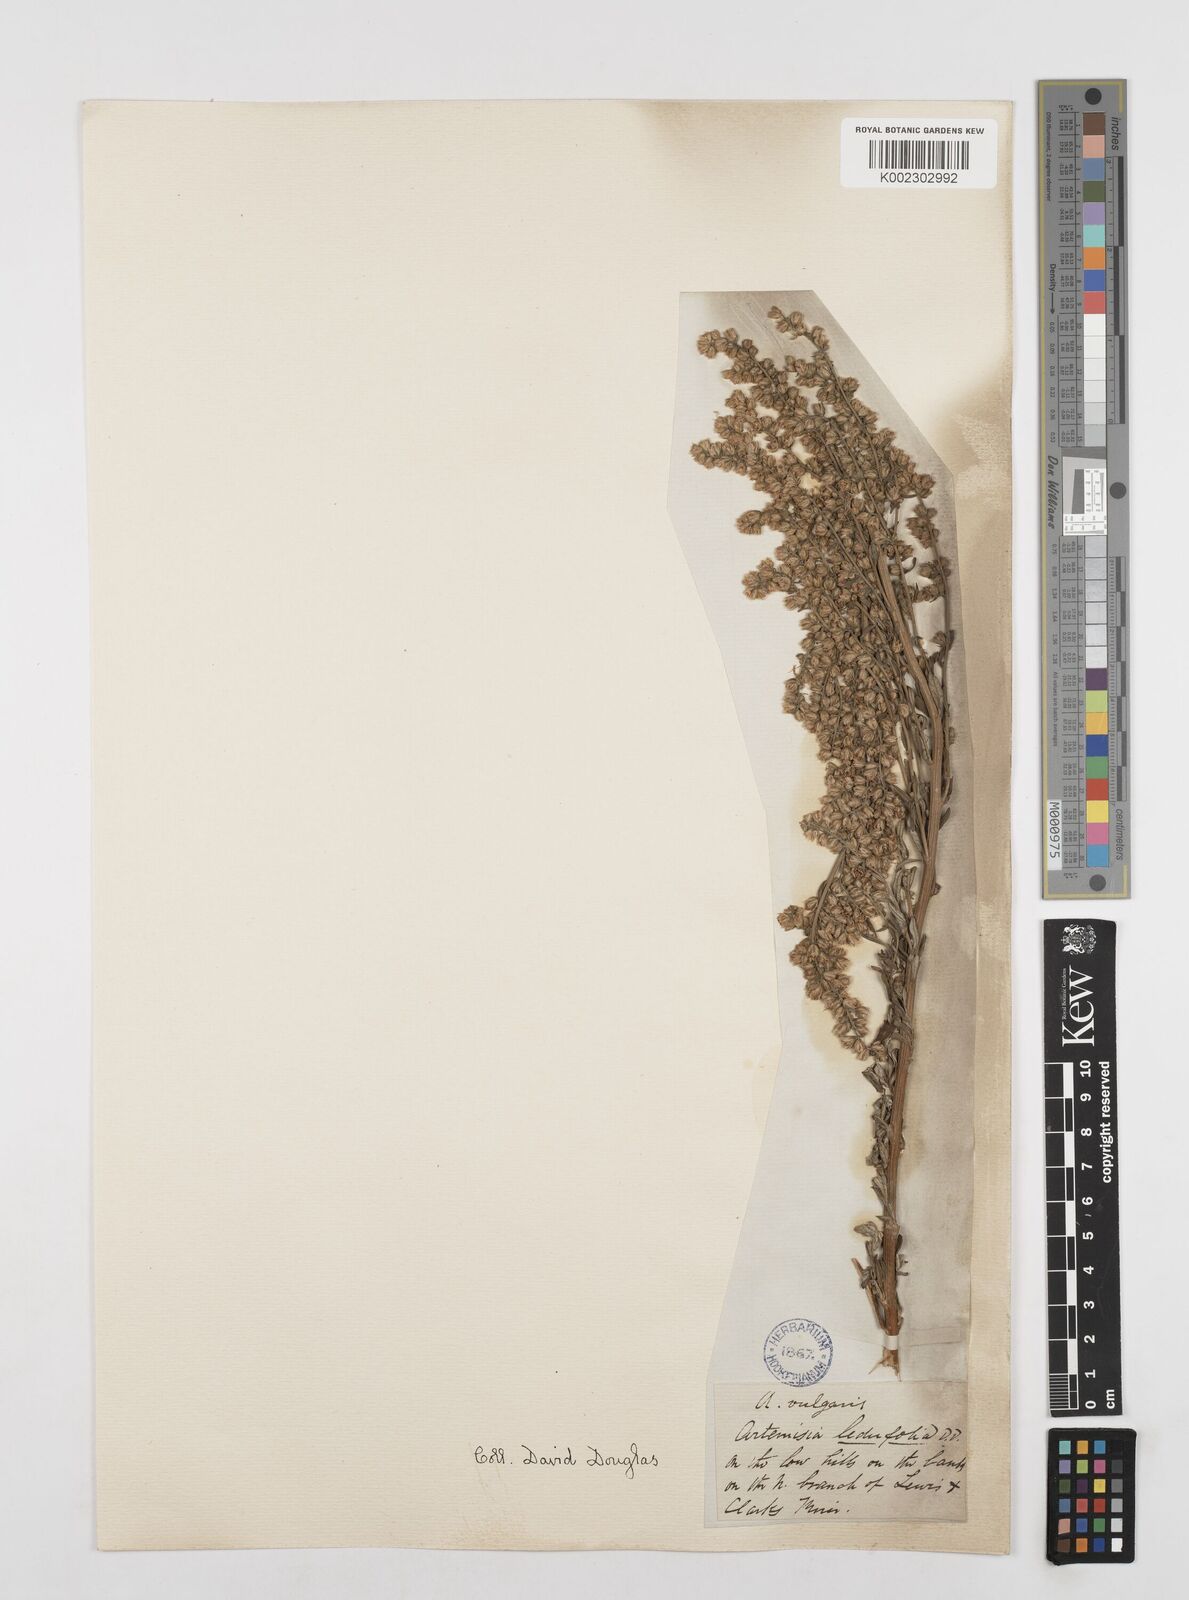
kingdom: Plantae
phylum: Tracheophyta
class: Magnoliopsida
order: Asterales
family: Asteraceae
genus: Artemisia
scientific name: Artemisia michauxiana
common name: Lemon sagewort
